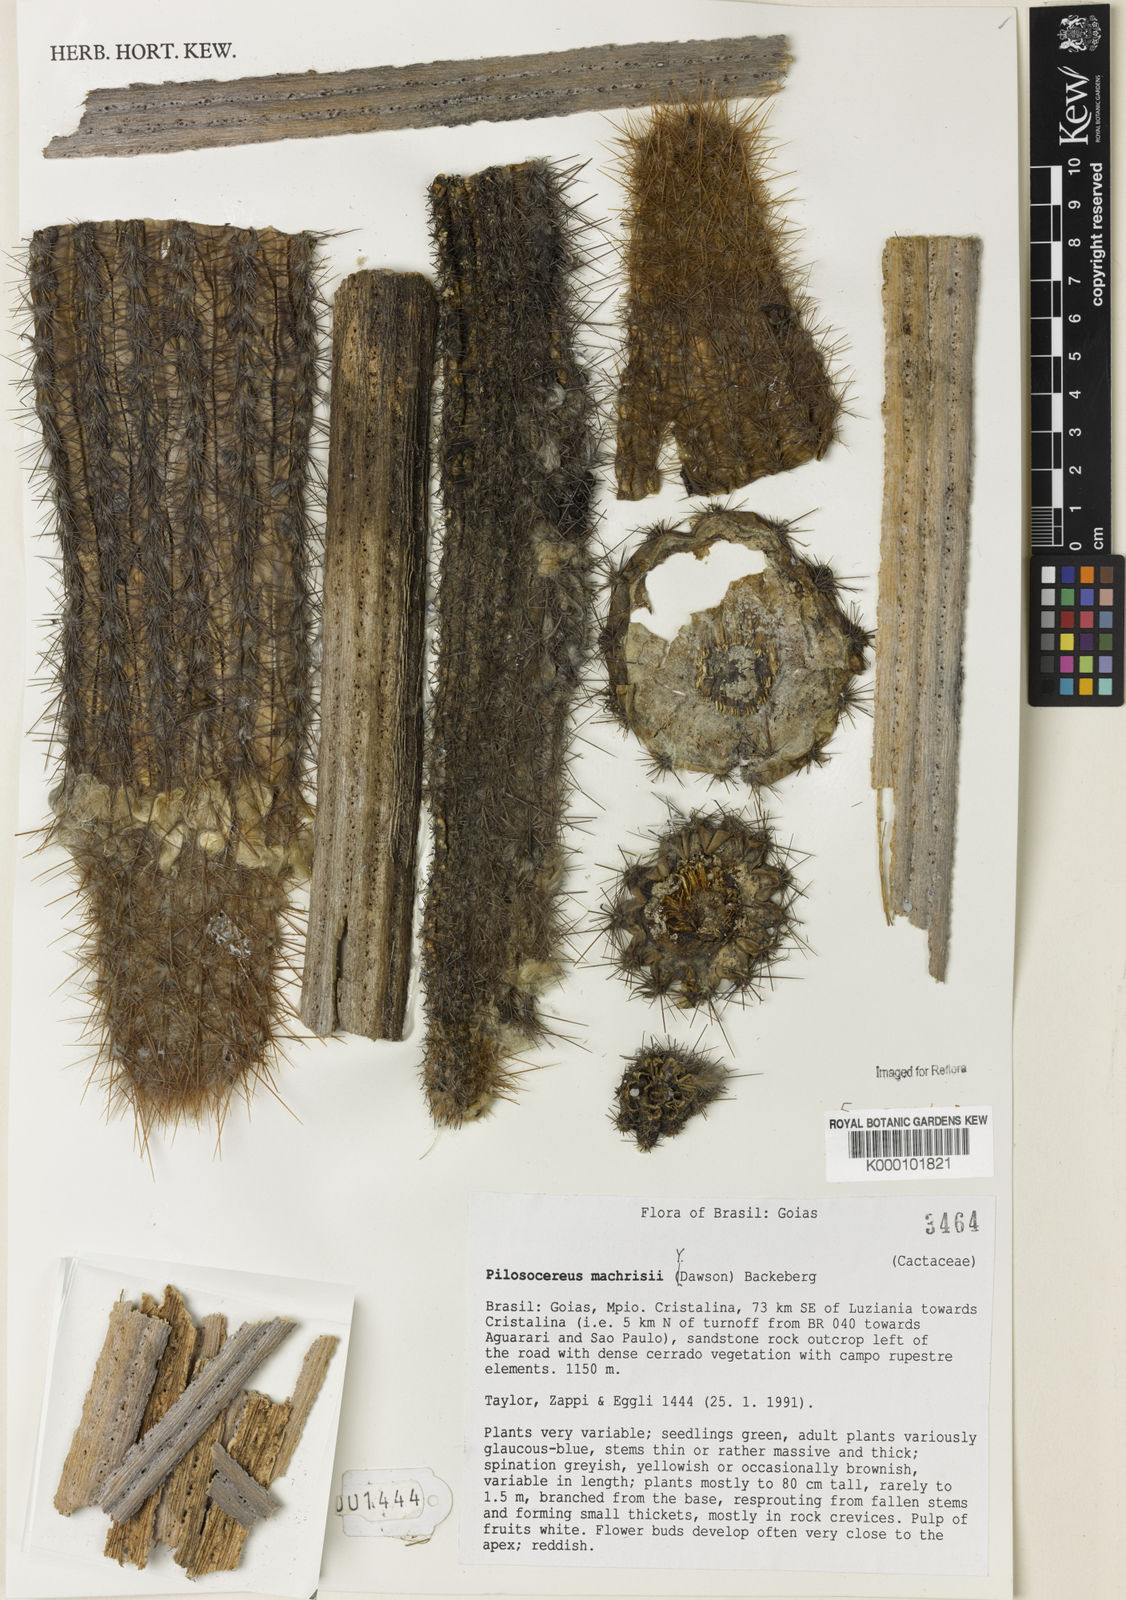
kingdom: Plantae
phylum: Tracheophyta
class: Magnoliopsida
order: Caryophyllales
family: Cactaceae
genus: Pilosocereus
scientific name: Pilosocereus machrisii
